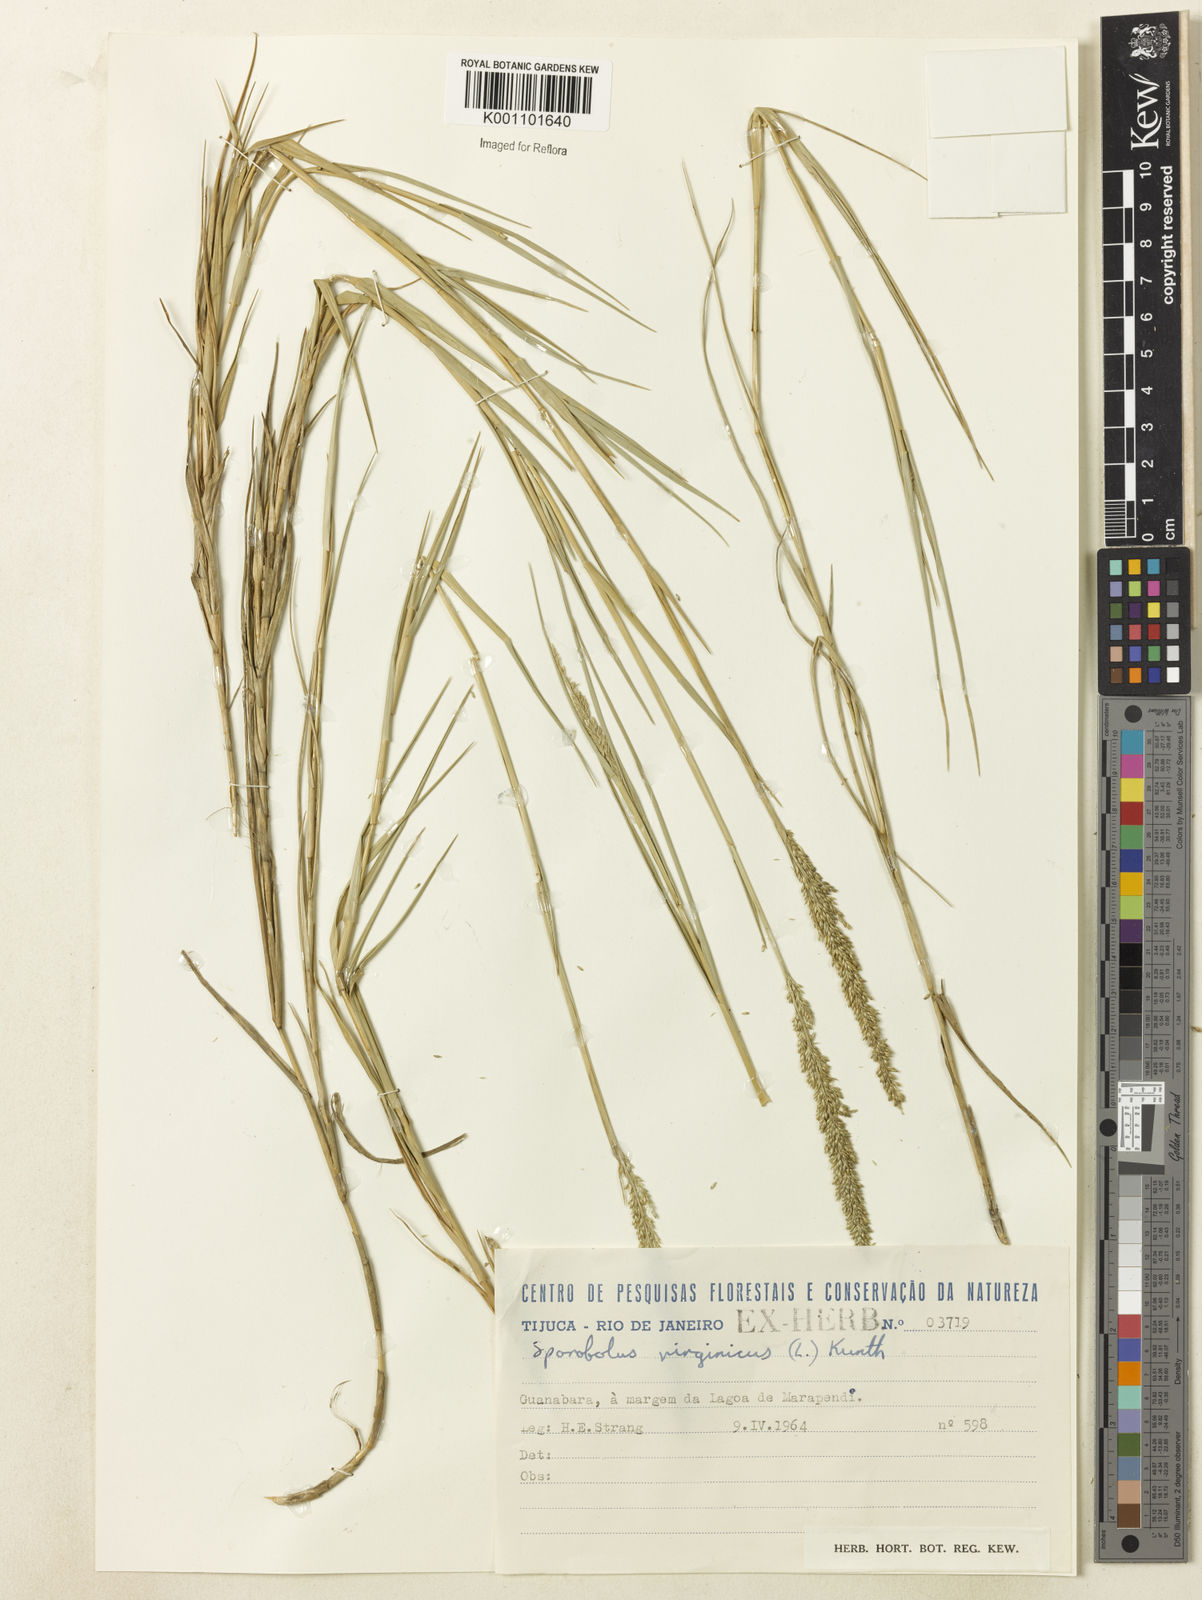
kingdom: Plantae
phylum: Tracheophyta
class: Liliopsida
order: Poales
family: Poaceae
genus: Sporobolus
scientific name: Sporobolus virginicus
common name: Beach dropseed
